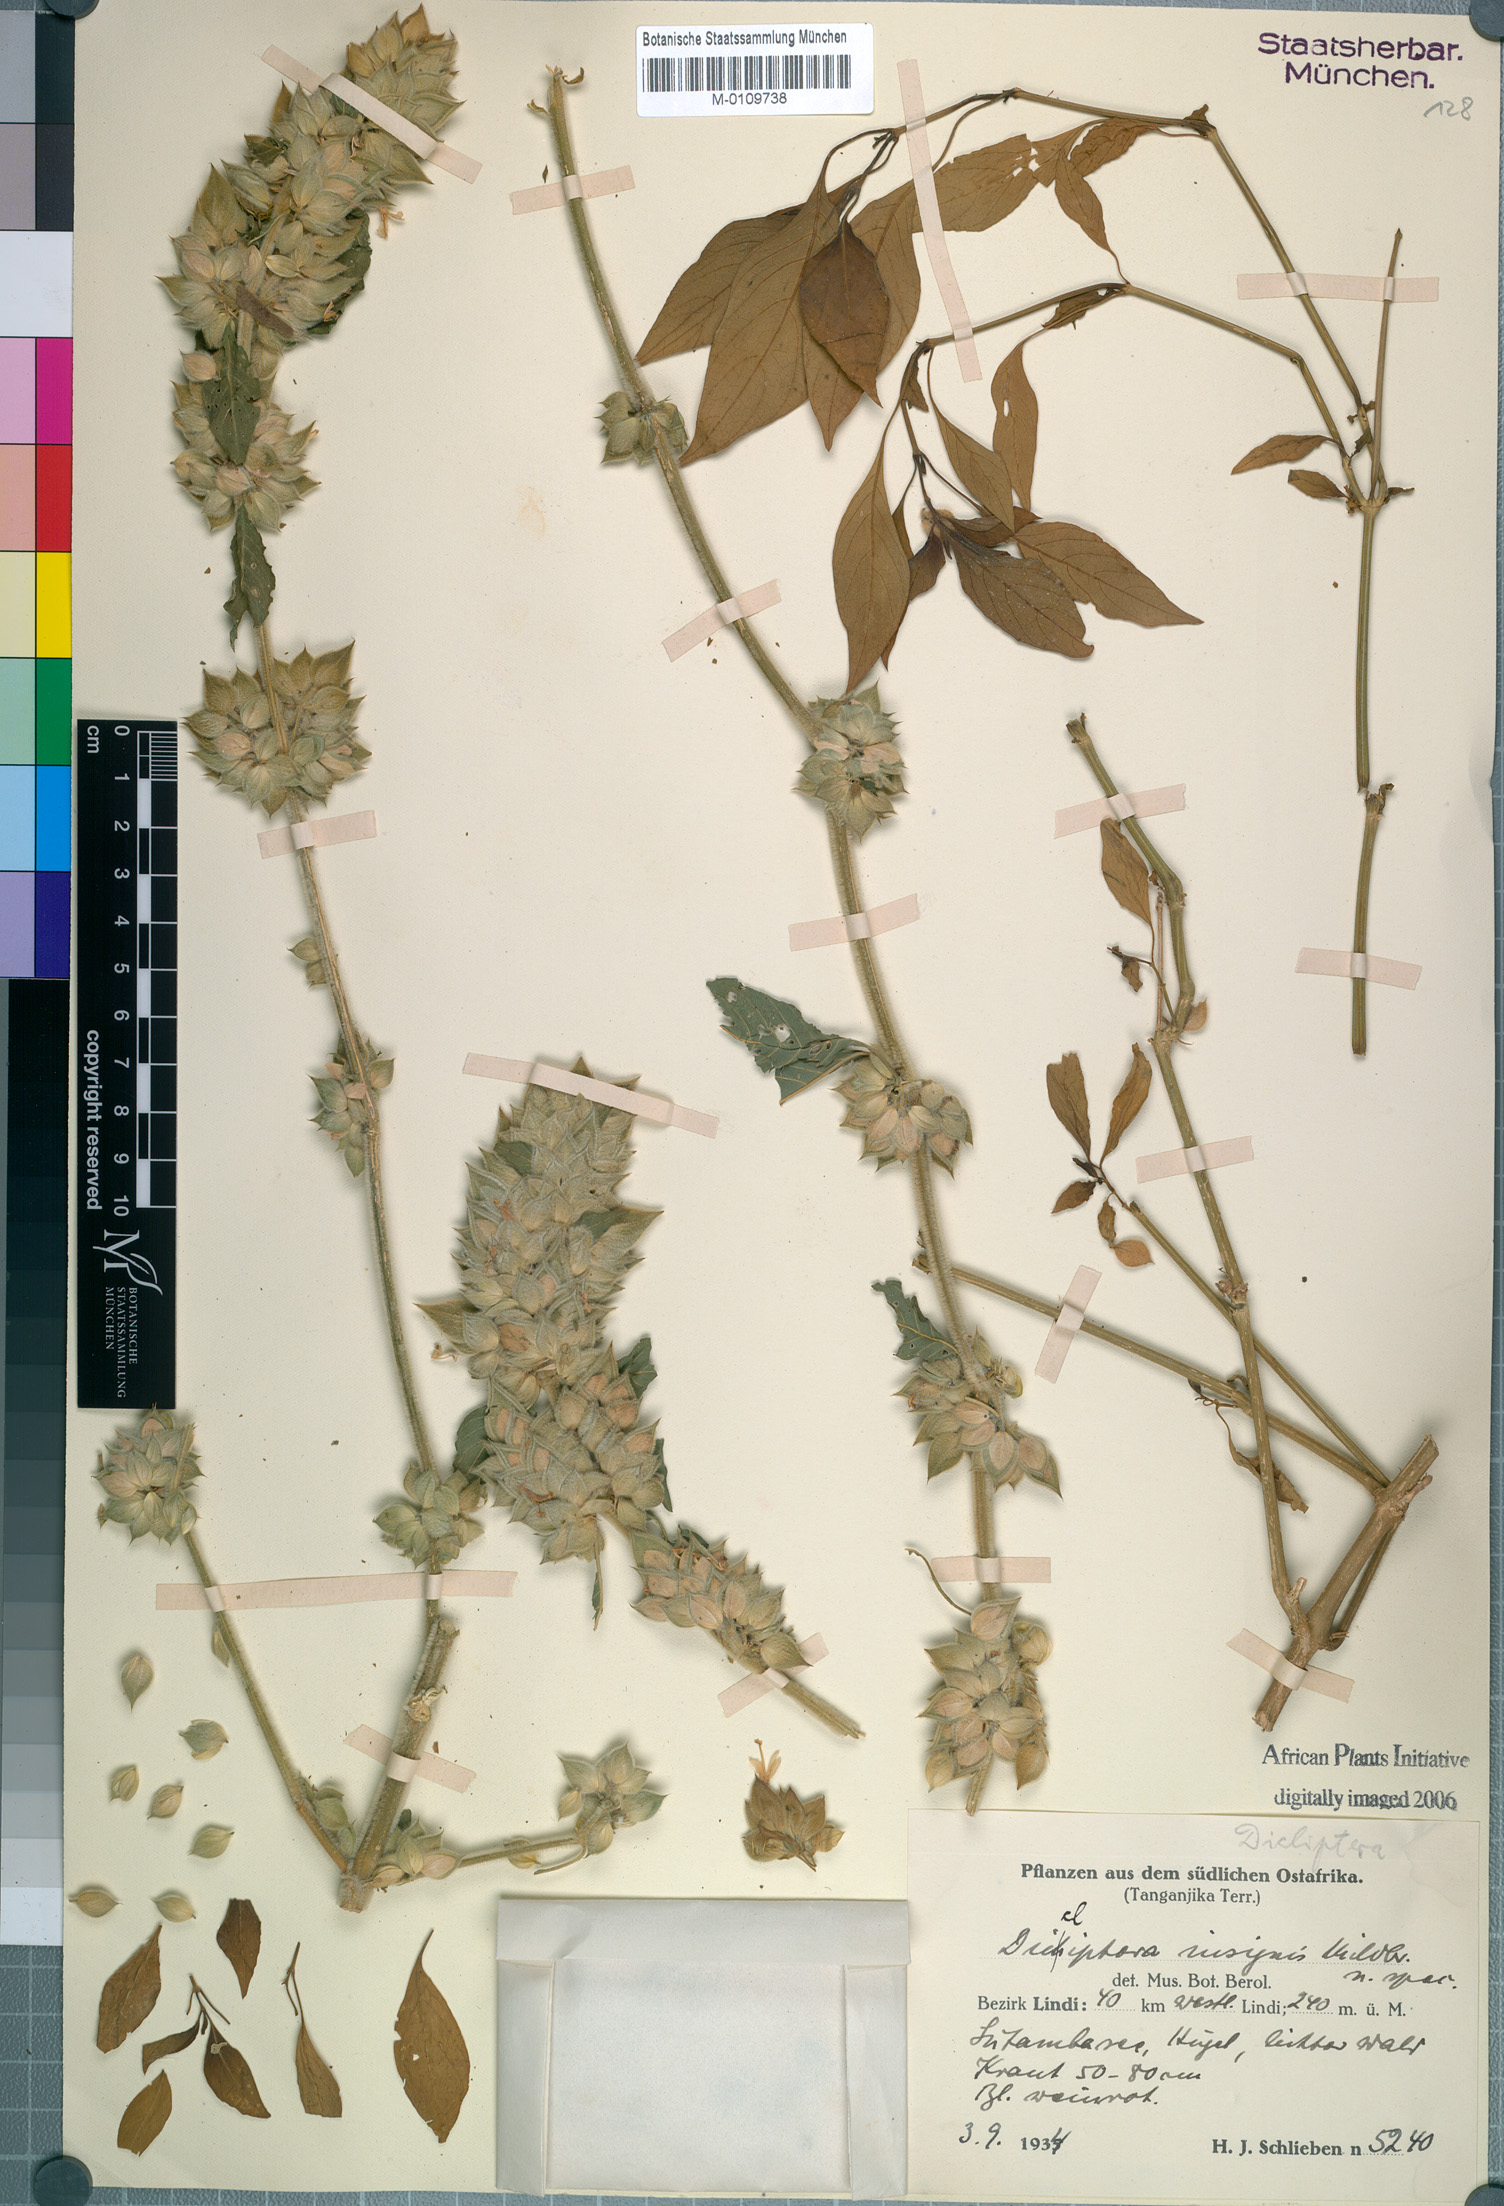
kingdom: Plantae
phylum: Tracheophyta
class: Magnoliopsida
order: Lamiales
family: Acanthaceae
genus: Dicliptera
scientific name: Dicliptera heterostegia
